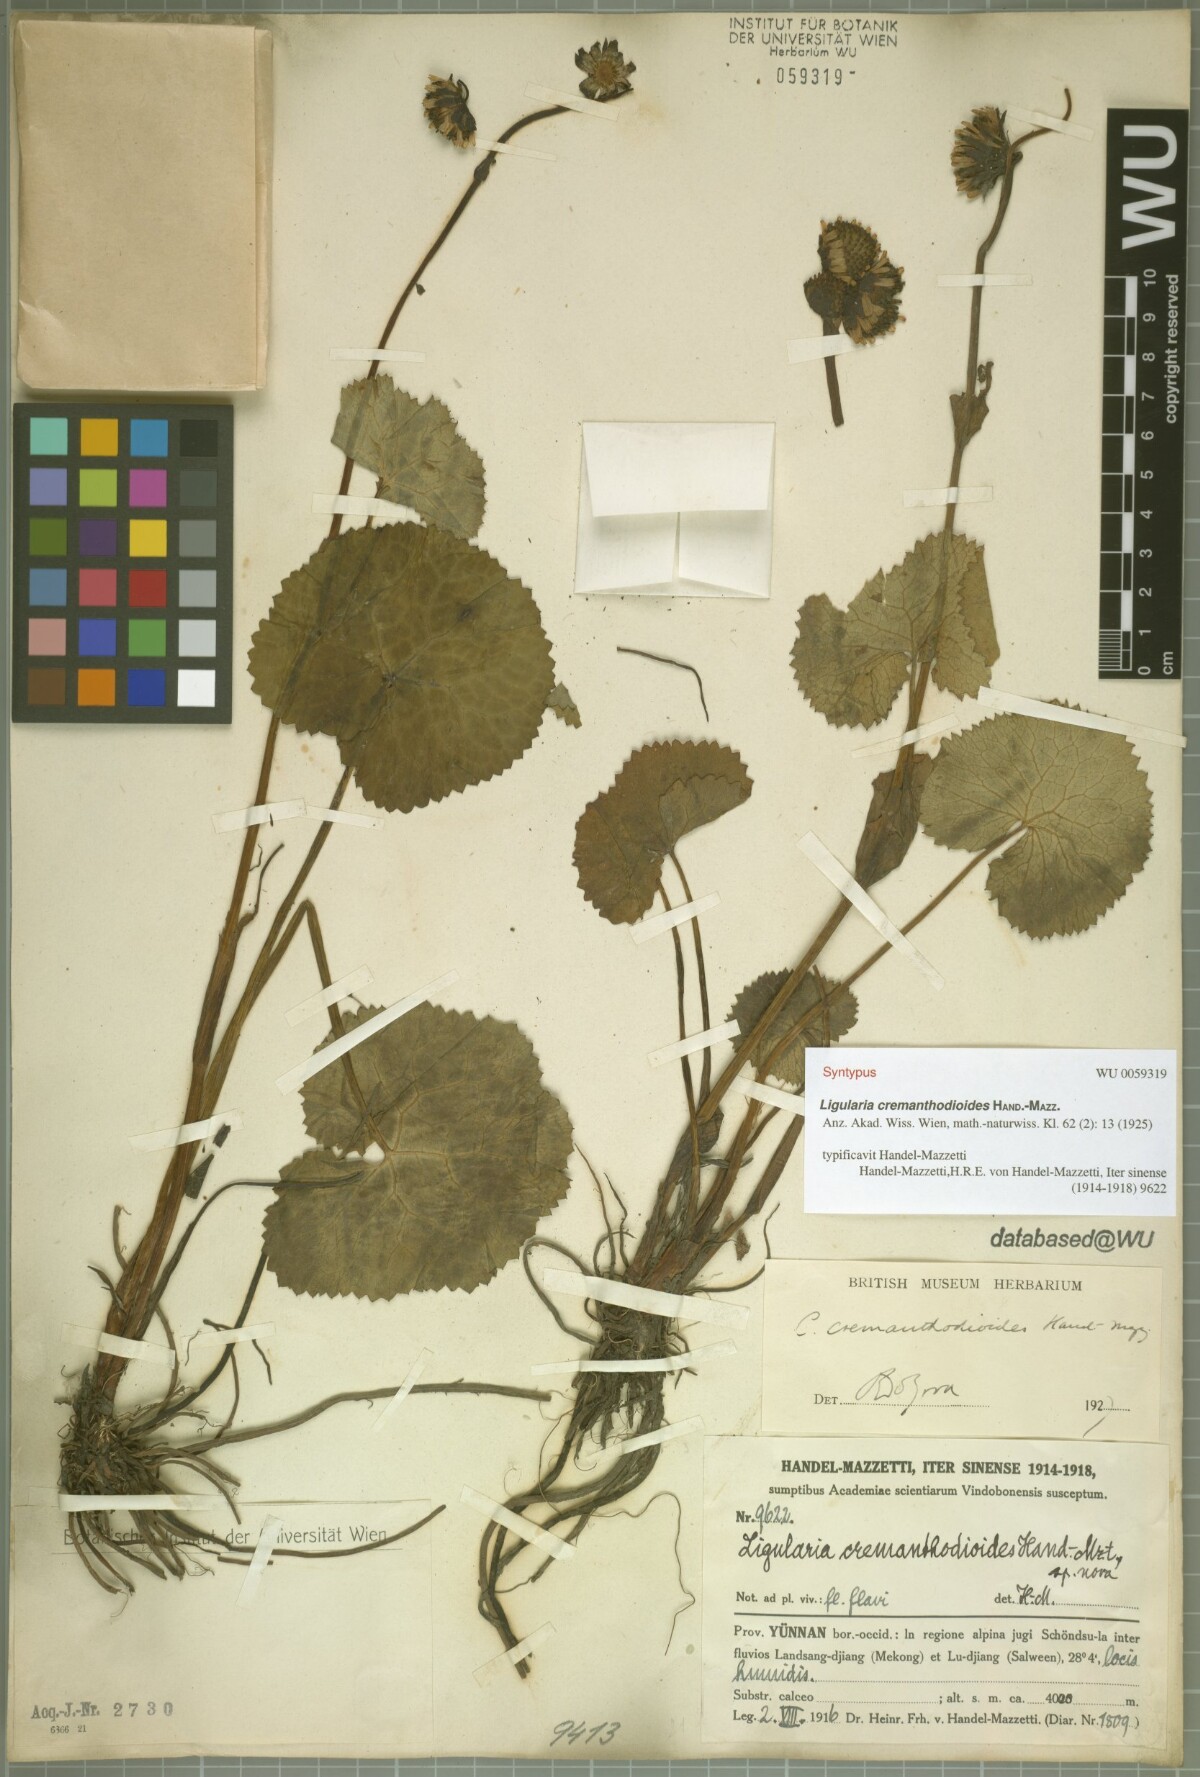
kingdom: Plantae
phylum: Tracheophyta
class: Magnoliopsida
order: Asterales
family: Asteraceae
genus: Ligularia
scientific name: Ligularia cremanthodioides
